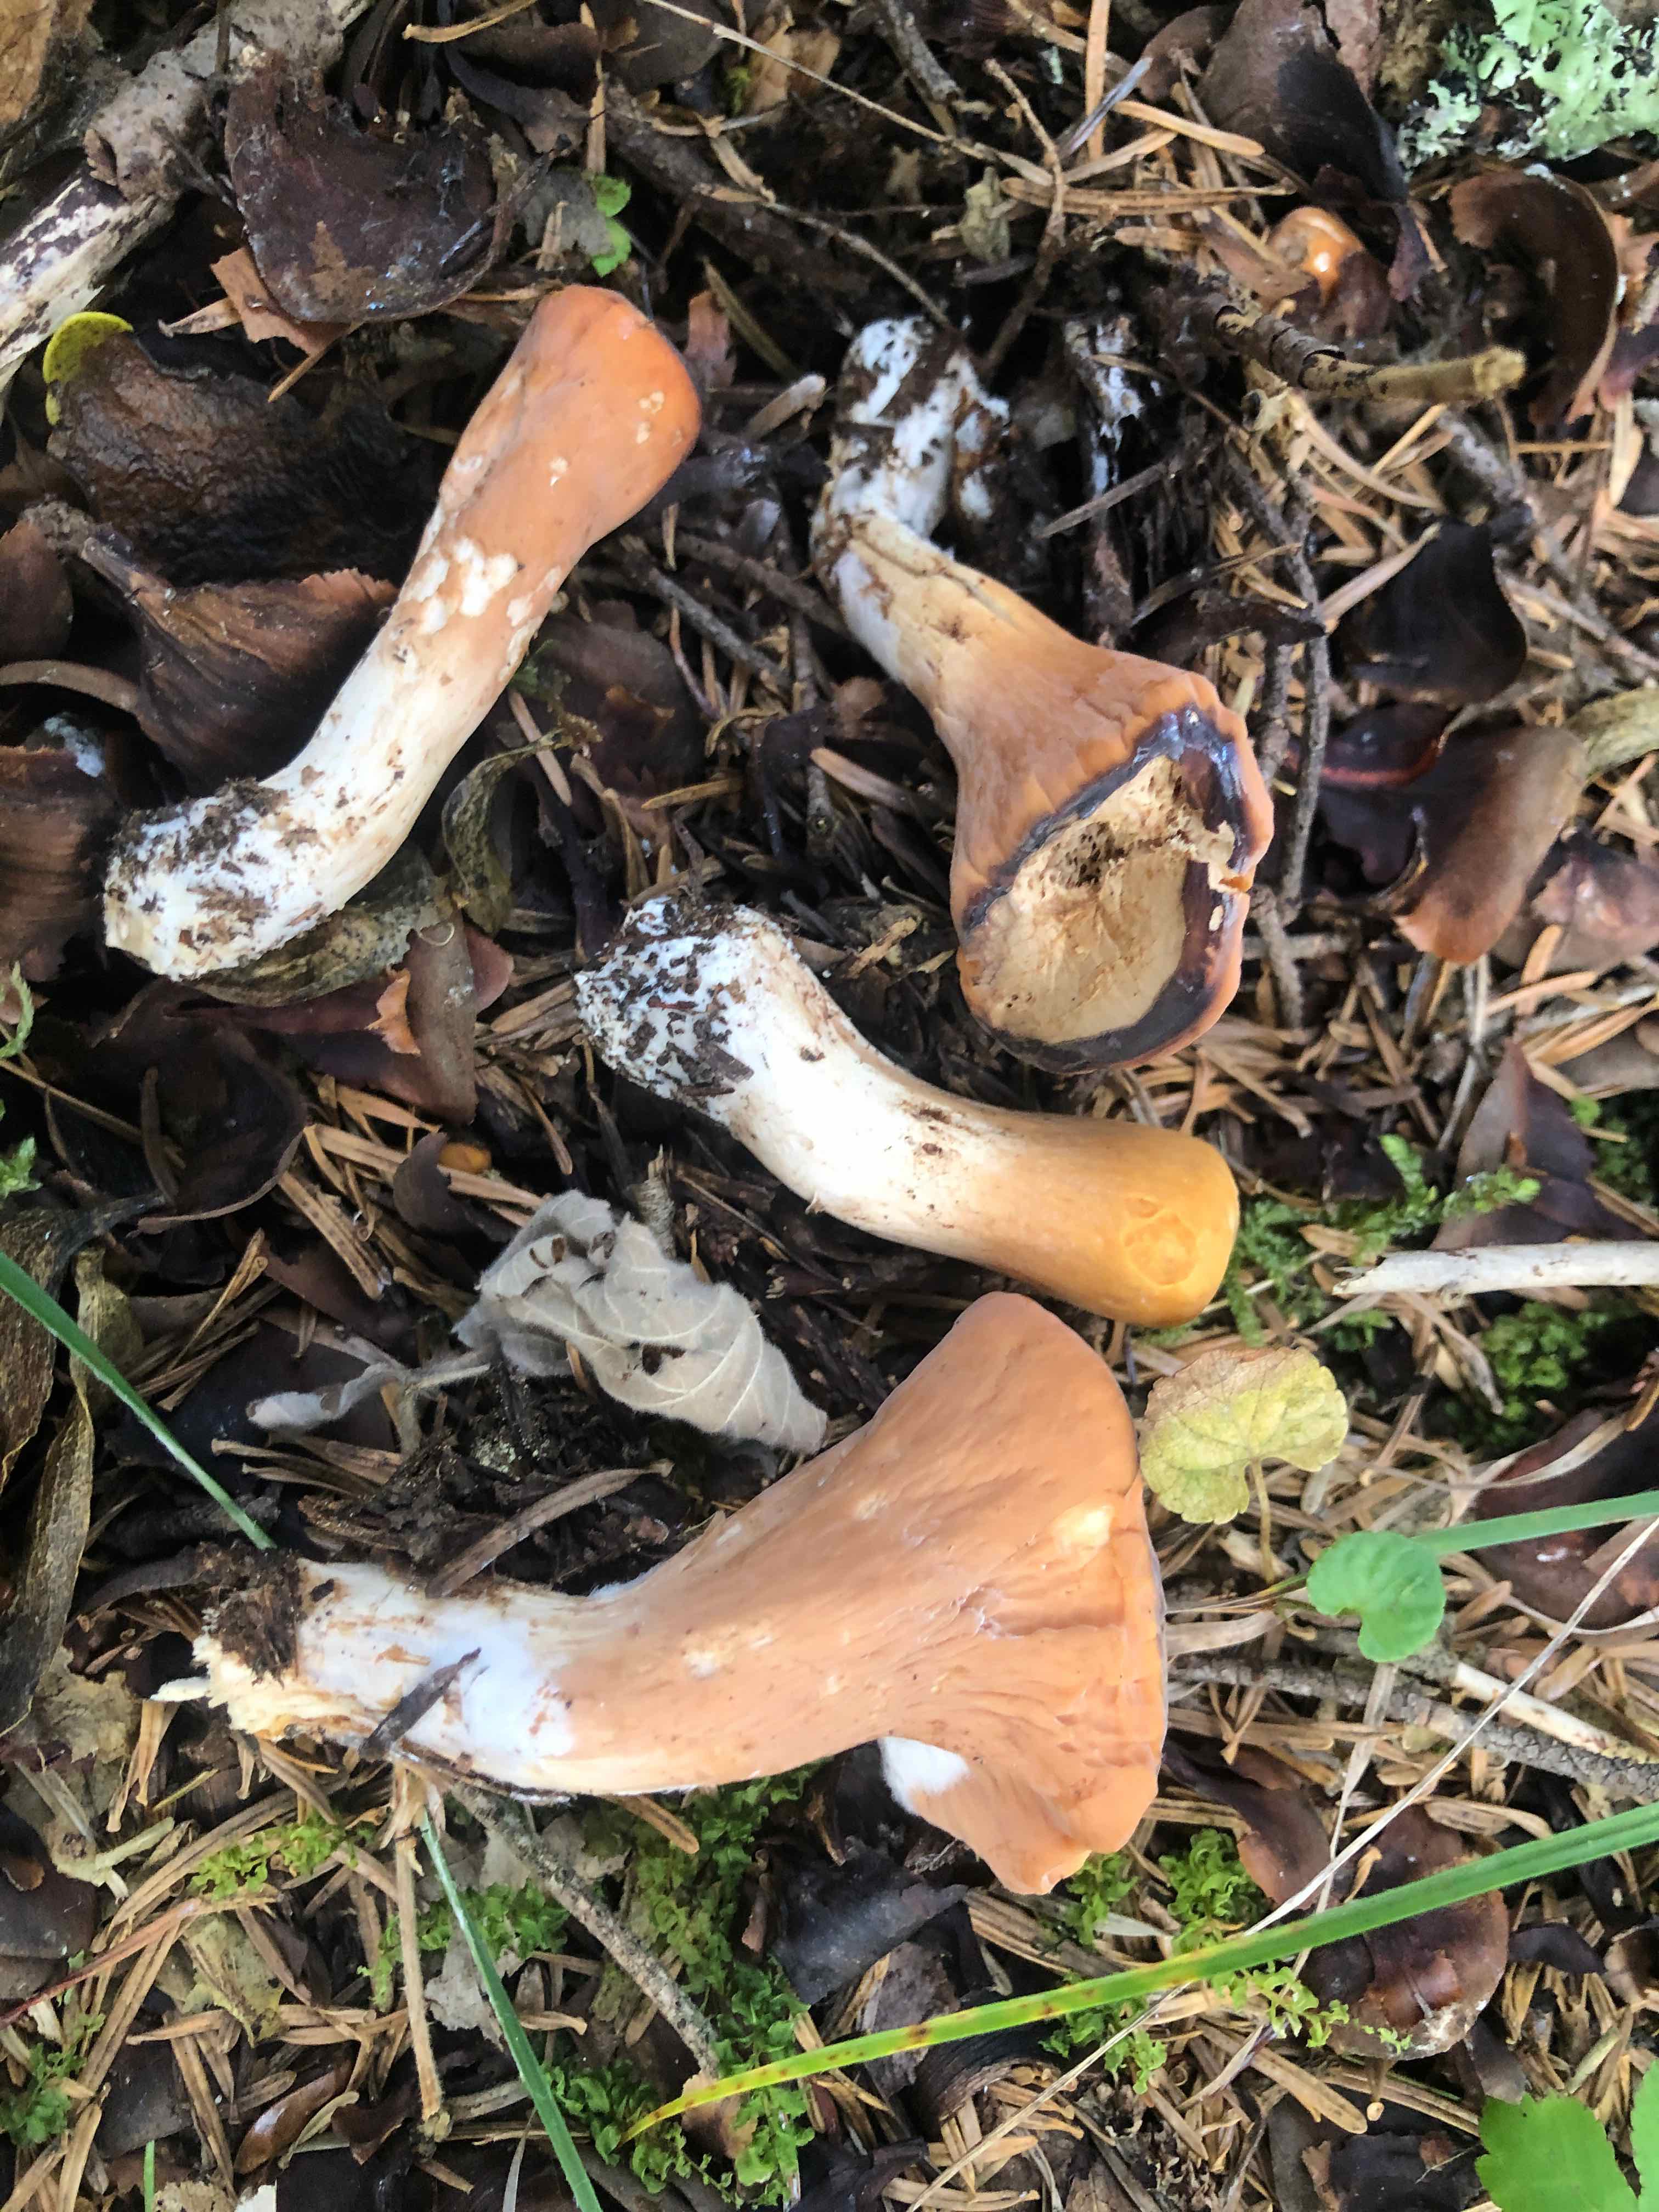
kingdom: Fungi
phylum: Basidiomycota
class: Agaricomycetes
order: Gomphales
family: Clavariadelphaceae
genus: Clavariadelphus
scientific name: Clavariadelphus truncatus
